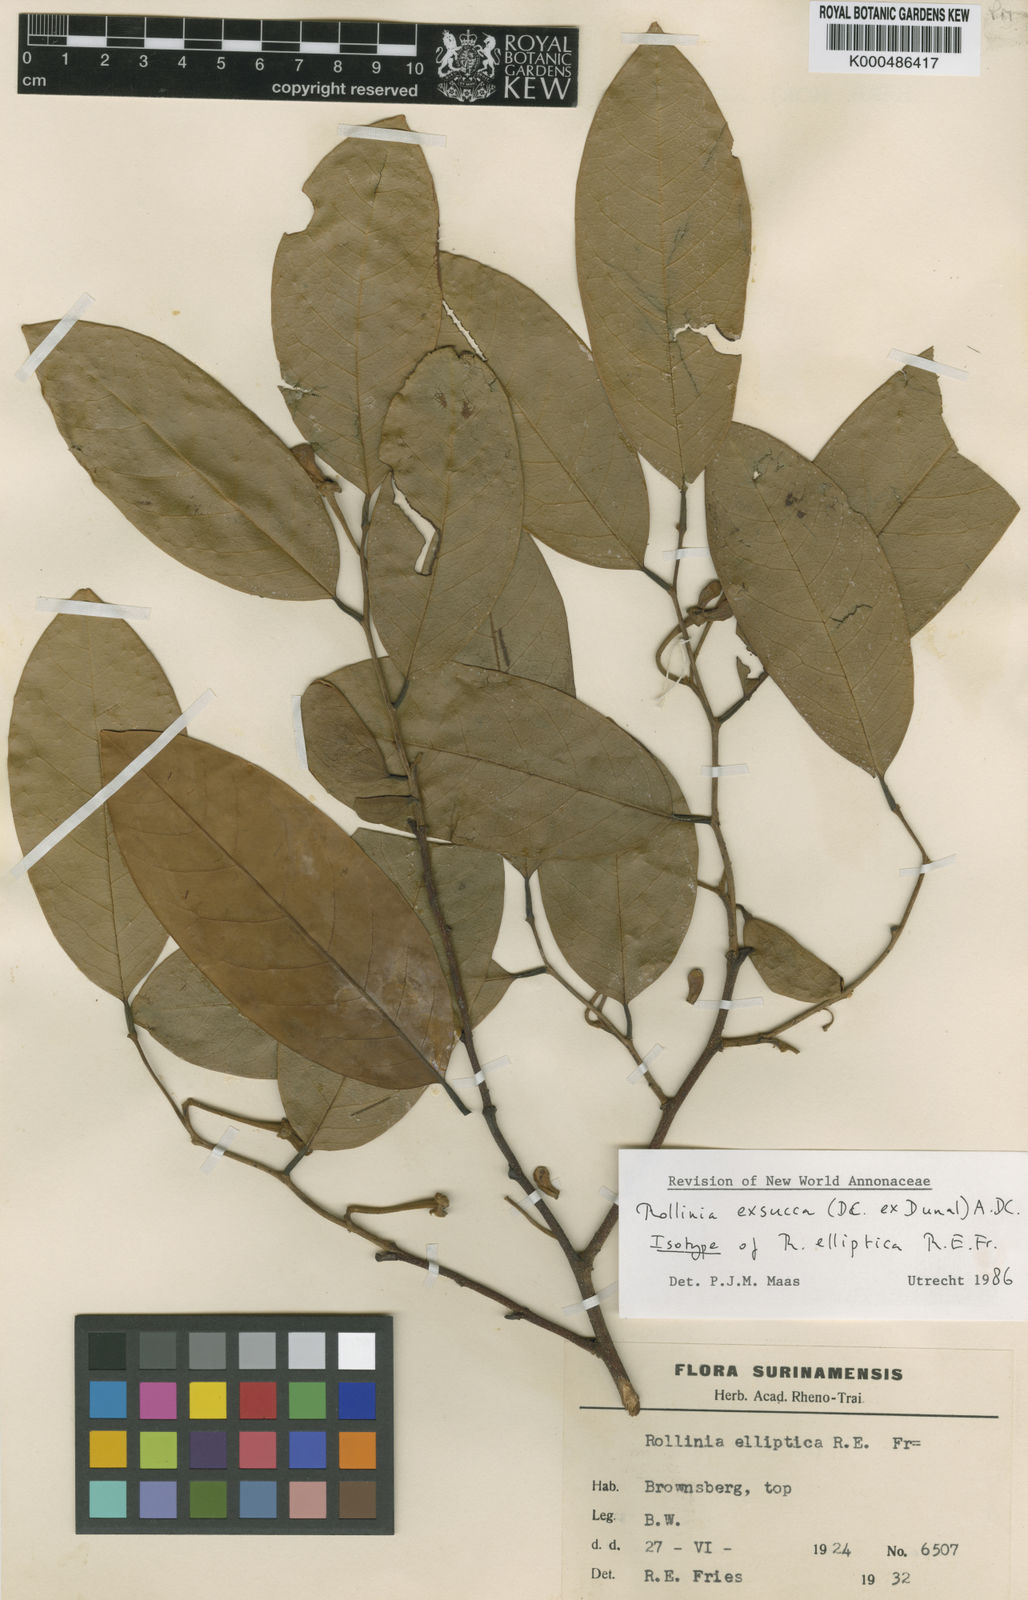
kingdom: Plantae
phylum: Tracheophyta
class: Magnoliopsida
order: Magnoliales
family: Annonaceae
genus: Annona
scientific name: Annona
